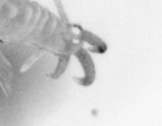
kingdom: Animalia
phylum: Arthropoda
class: Copepoda
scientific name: Copepoda
